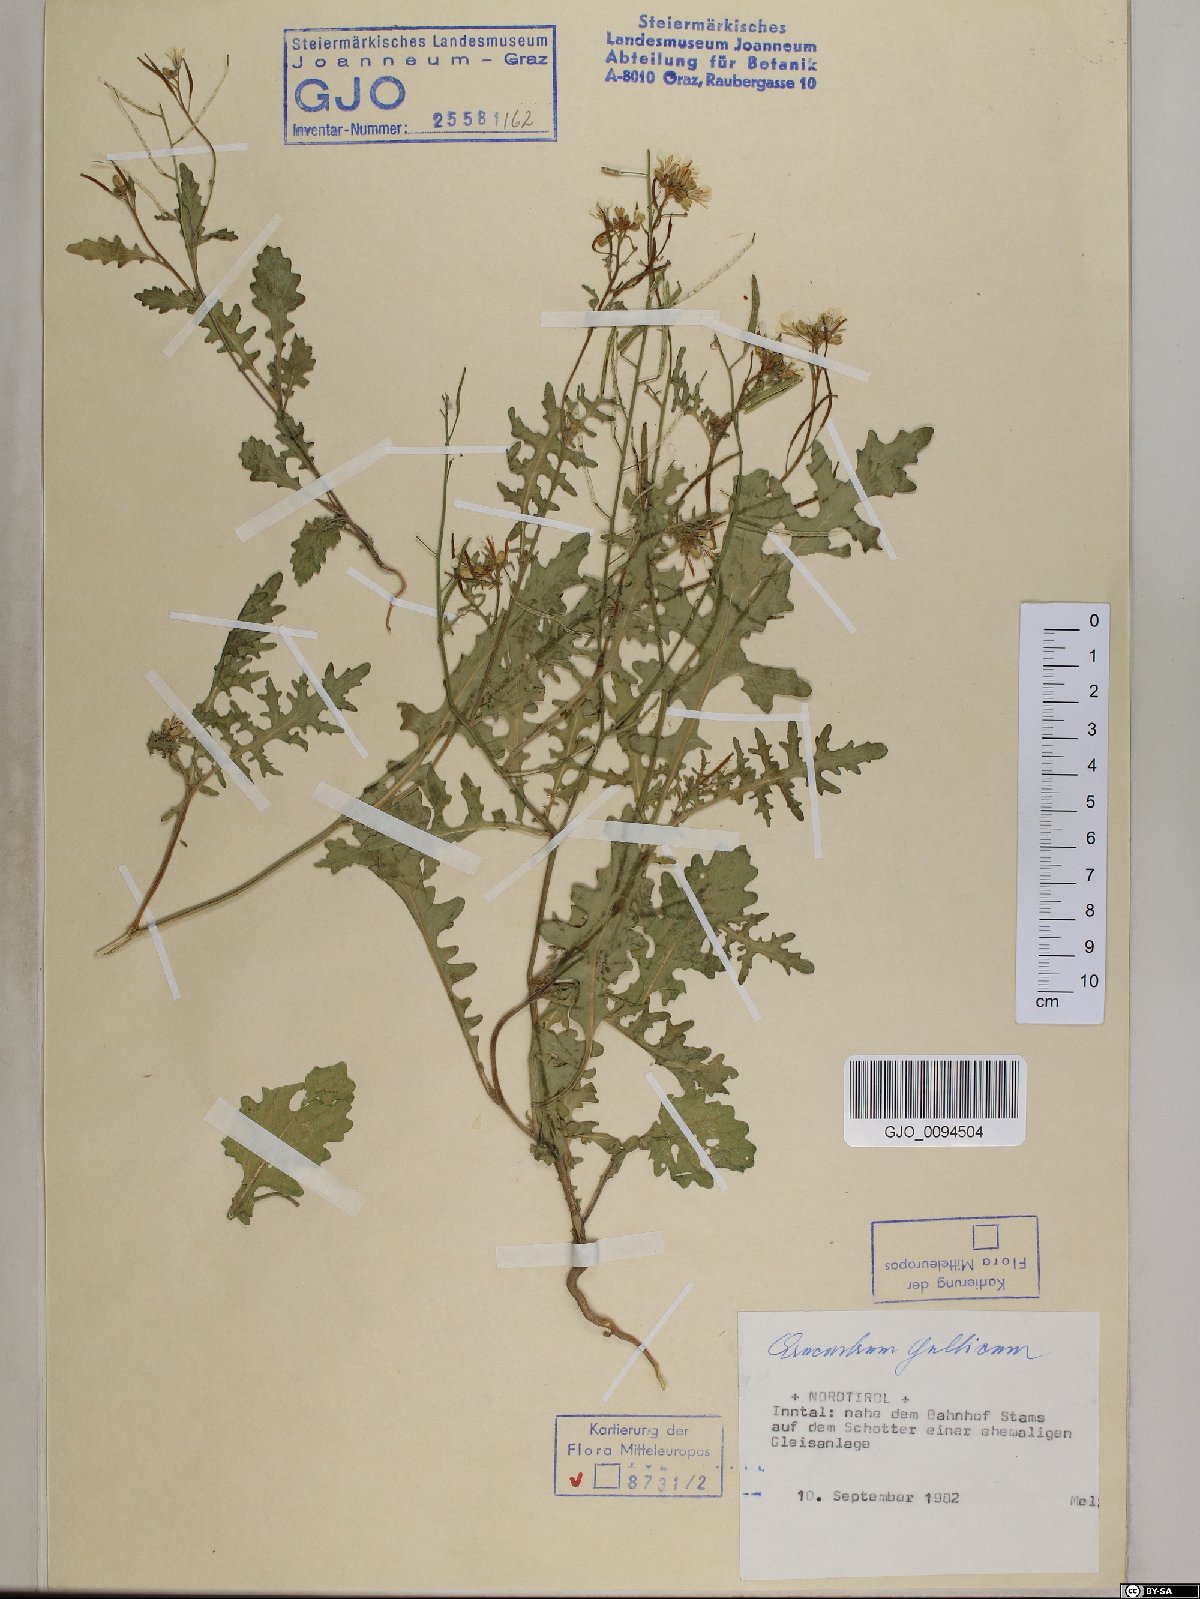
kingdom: Plantae
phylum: Tracheophyta
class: Magnoliopsida
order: Brassicales
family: Brassicaceae
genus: Erucastrum
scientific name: Erucastrum gallicum
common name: Hairy rocket
